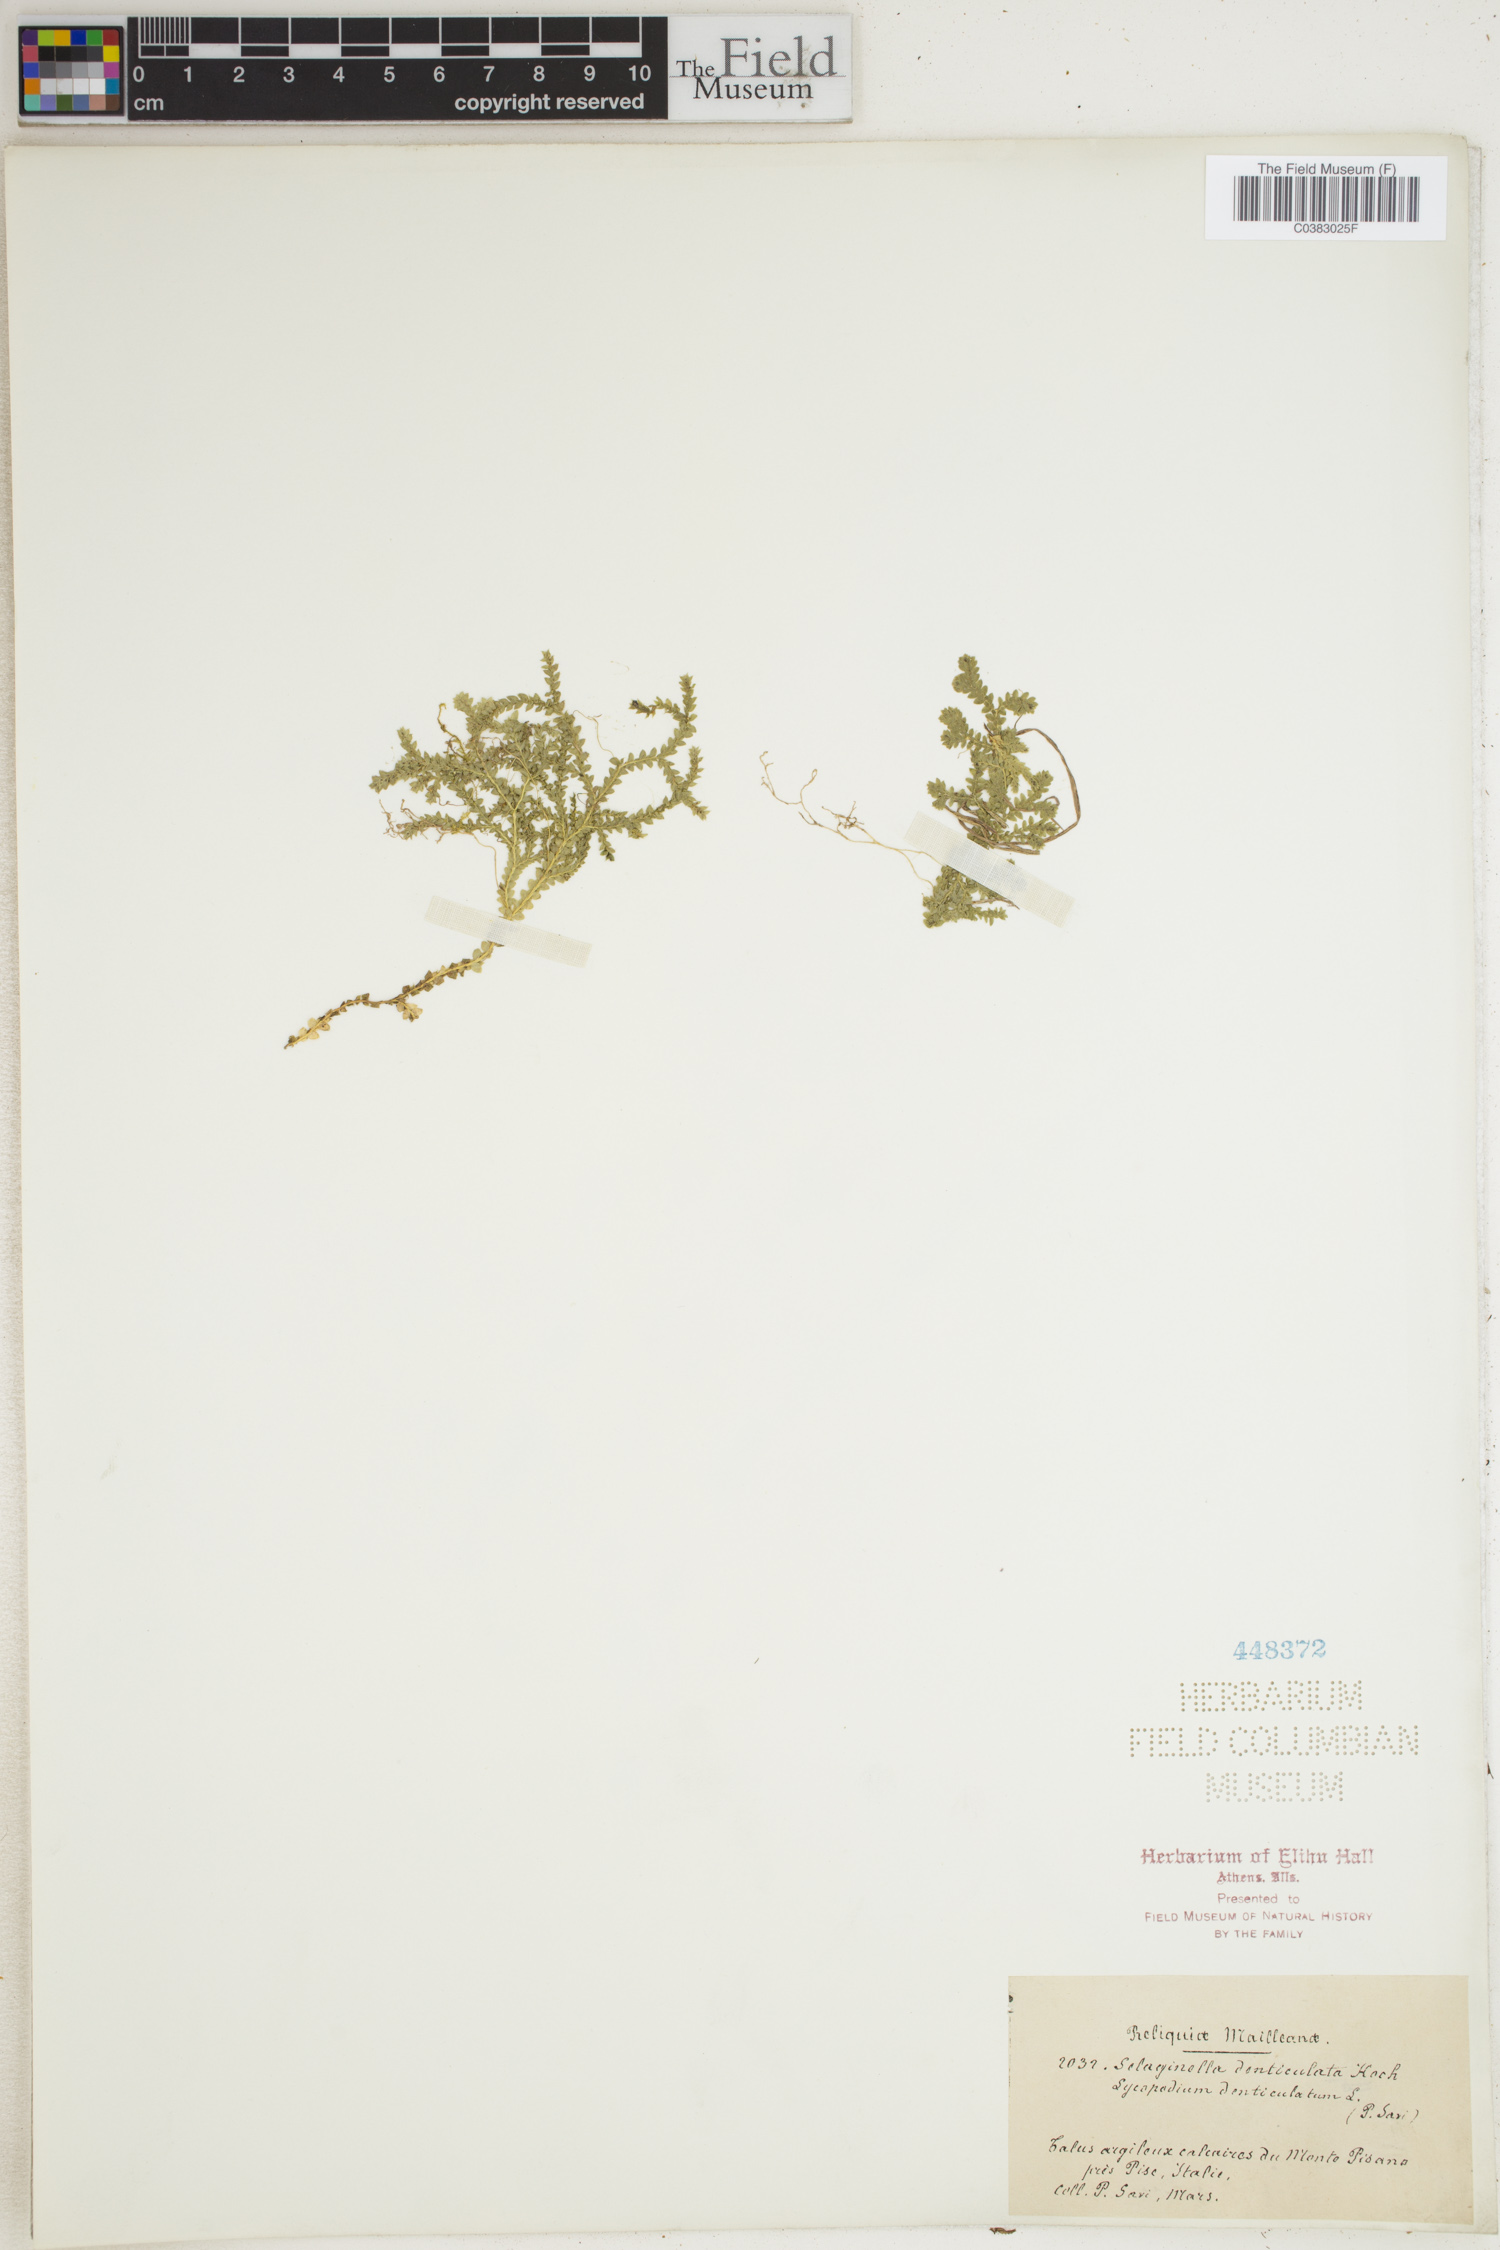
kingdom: Plantae
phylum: Tracheophyta
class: Lycopodiopsida
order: Selaginellales
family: Selaginellaceae
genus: Selaginella
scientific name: Selaginella denticulata
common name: Toothed-leaved clubmoss
